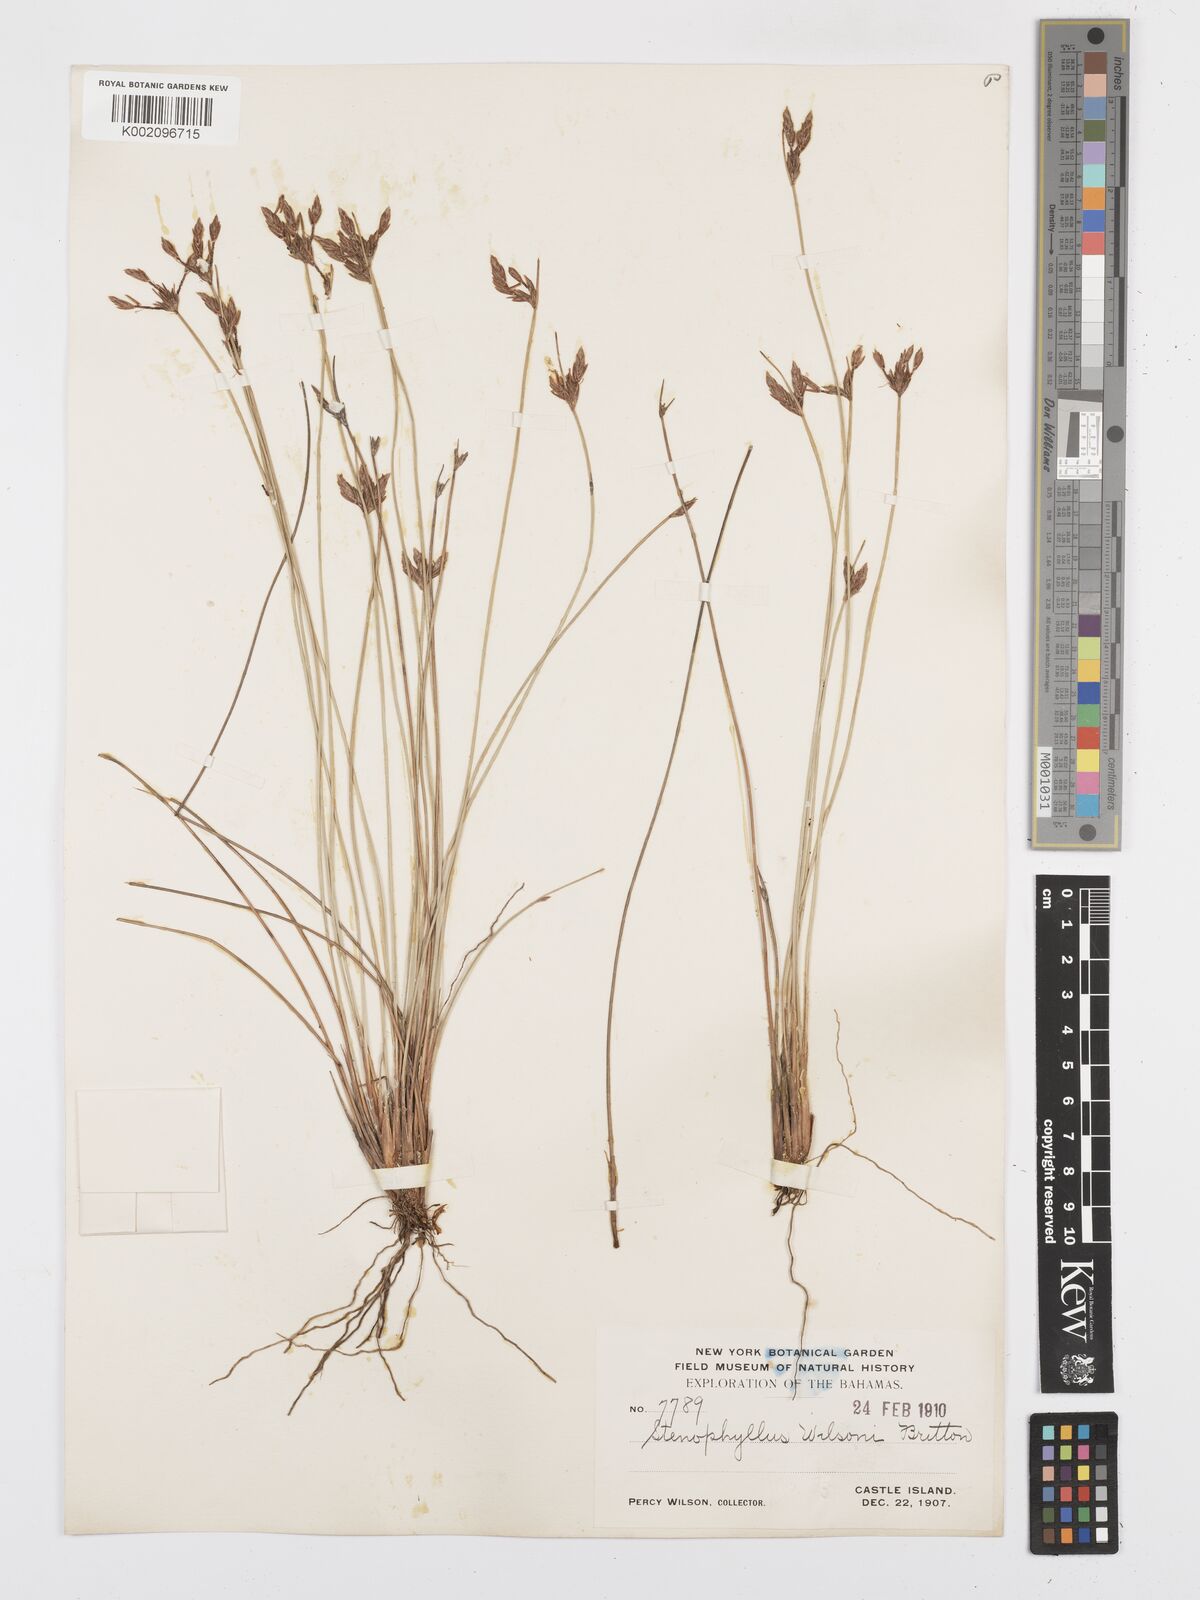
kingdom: Plantae
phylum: Tracheophyta
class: Liliopsida
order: Poales
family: Cyperaceae
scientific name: Cyperaceae
